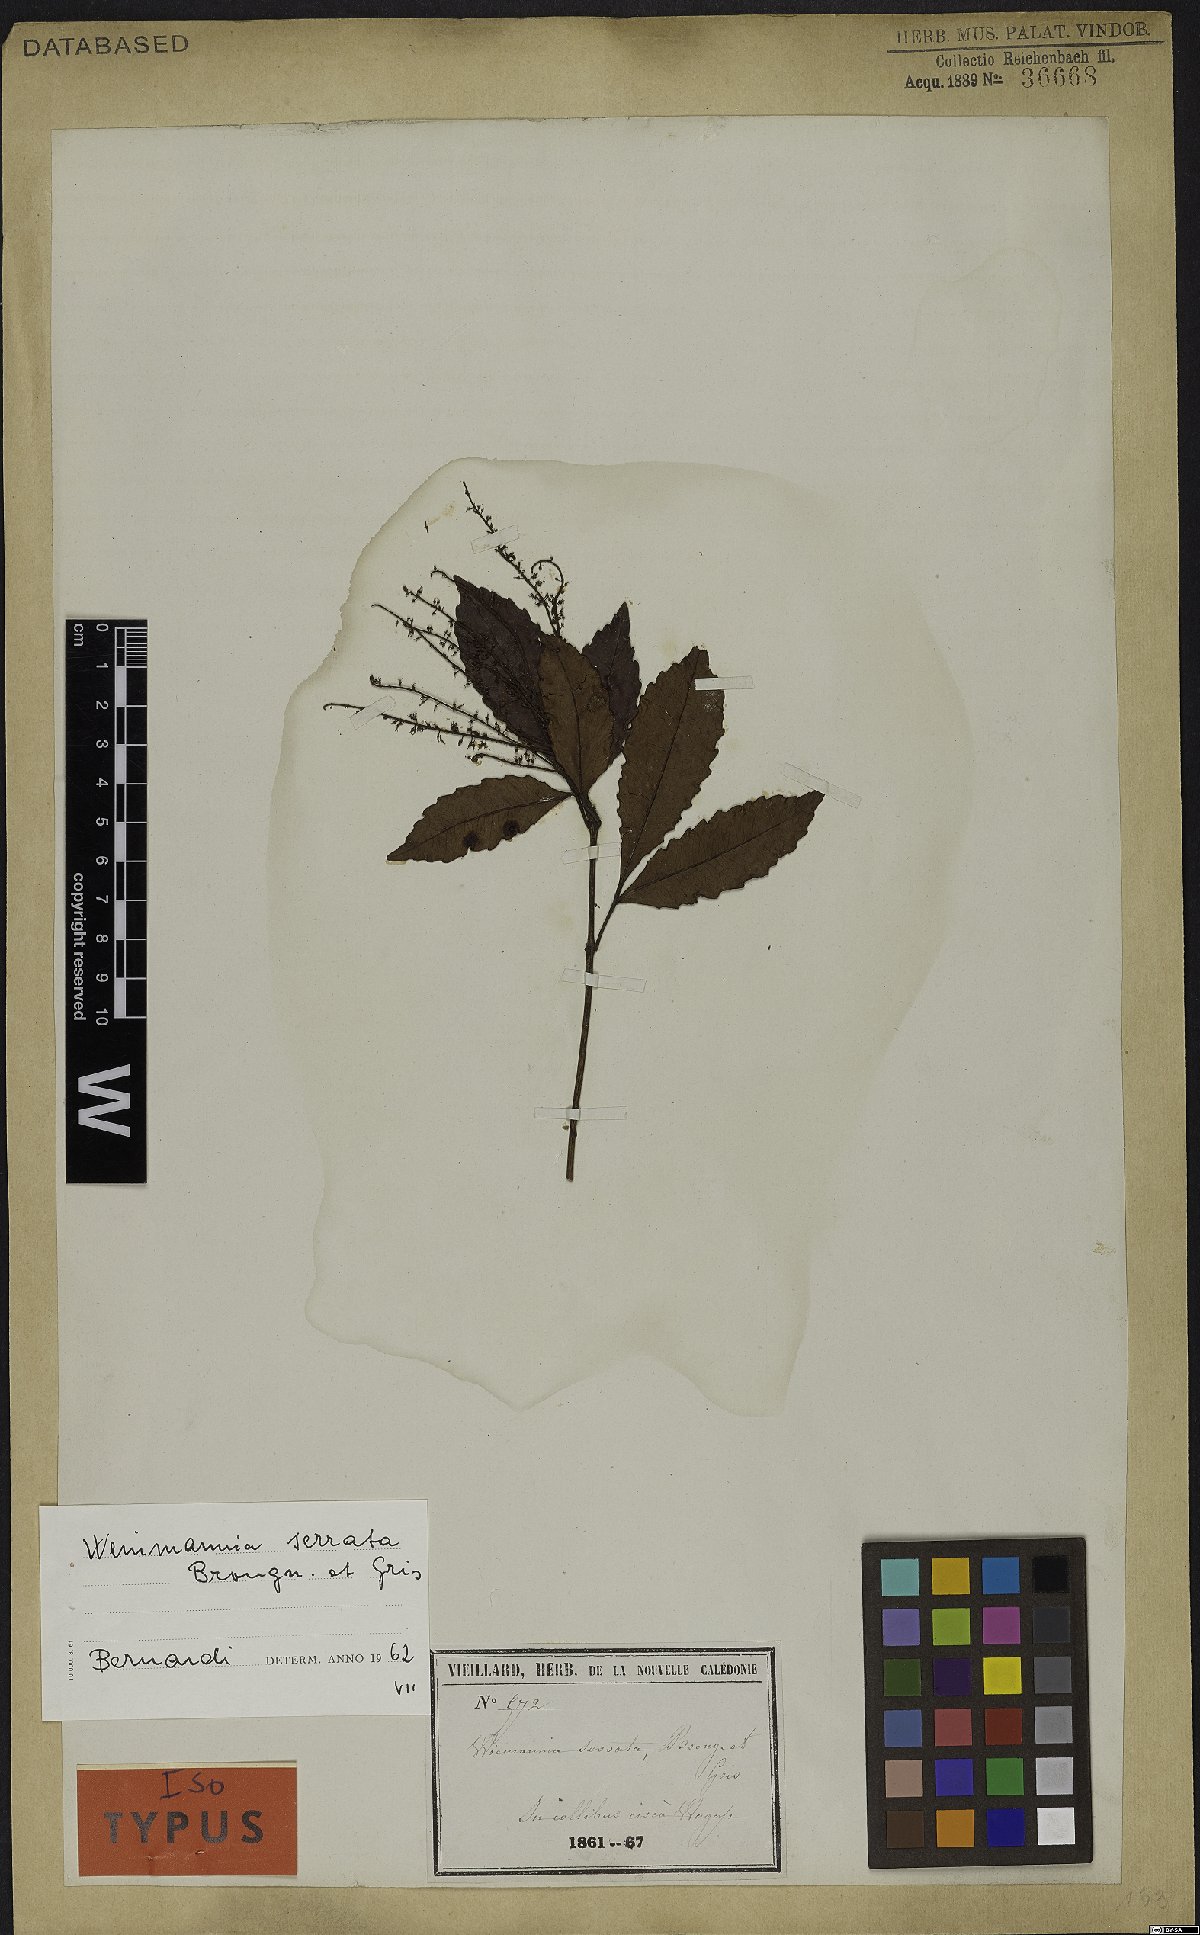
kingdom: Plantae
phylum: Tracheophyta
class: Magnoliopsida
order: Oxalidales
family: Cunoniaceae
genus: Pterophylla
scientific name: Pterophylla serrata
